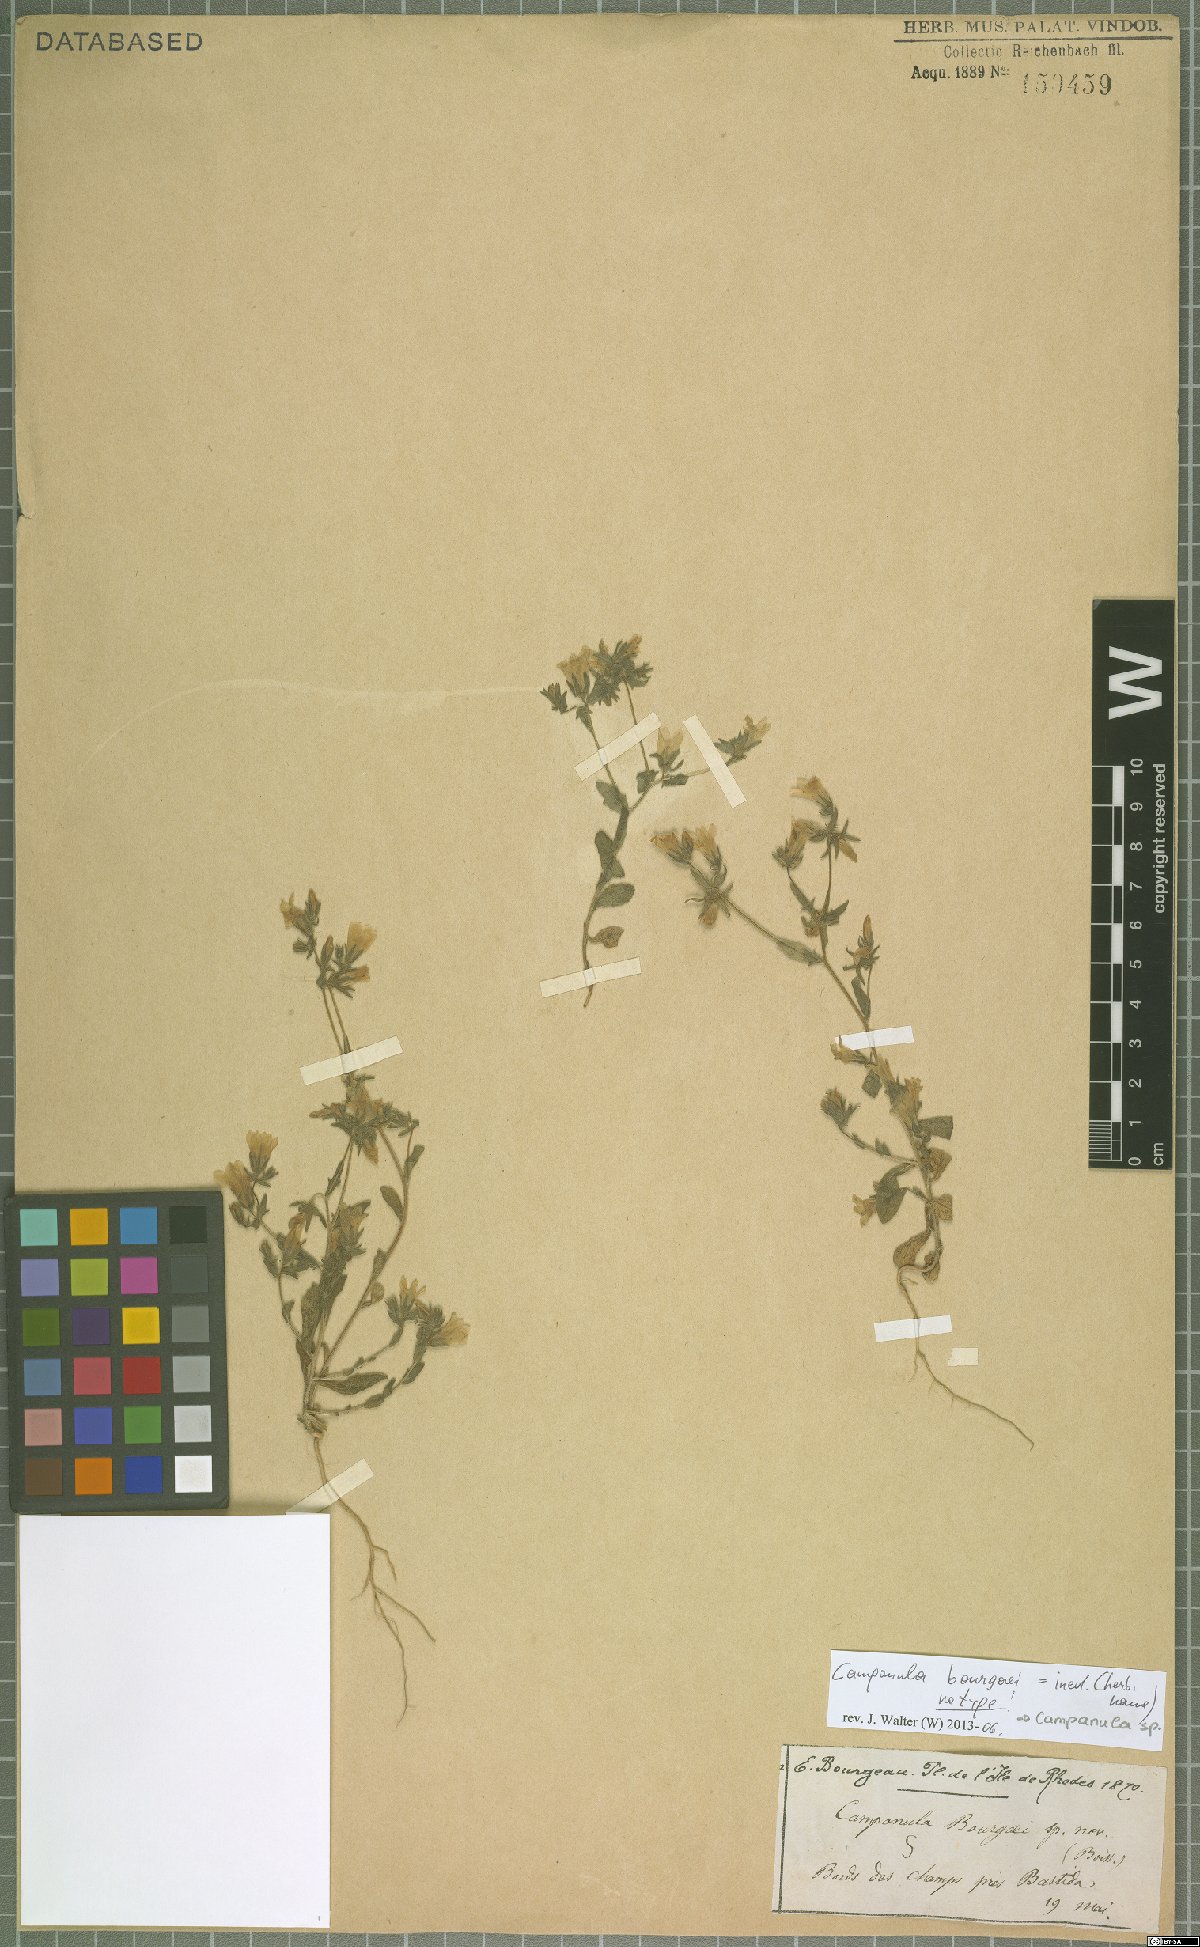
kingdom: Plantae
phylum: Tracheophyta
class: Magnoliopsida
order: Asterales
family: Campanulaceae
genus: Campanula
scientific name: Campanula
